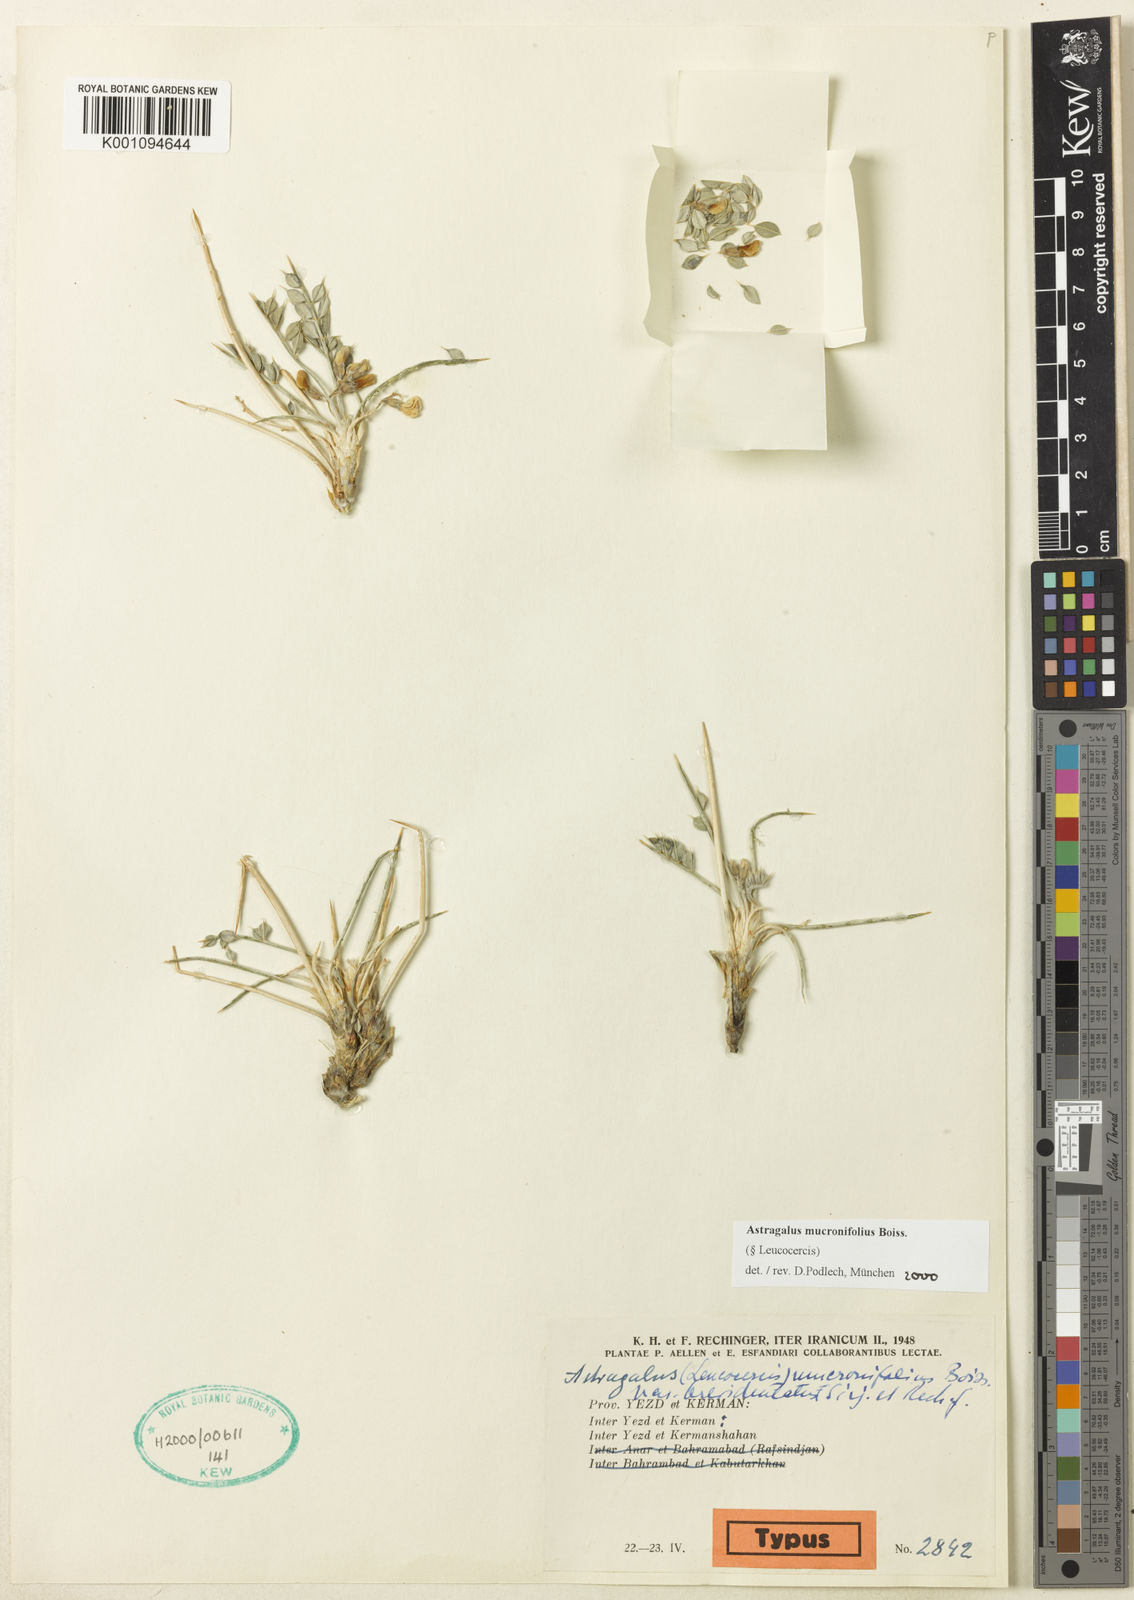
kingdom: Plantae
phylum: Tracheophyta
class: Magnoliopsida
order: Fabales
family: Fabaceae
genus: Astragalus
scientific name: Astragalus
